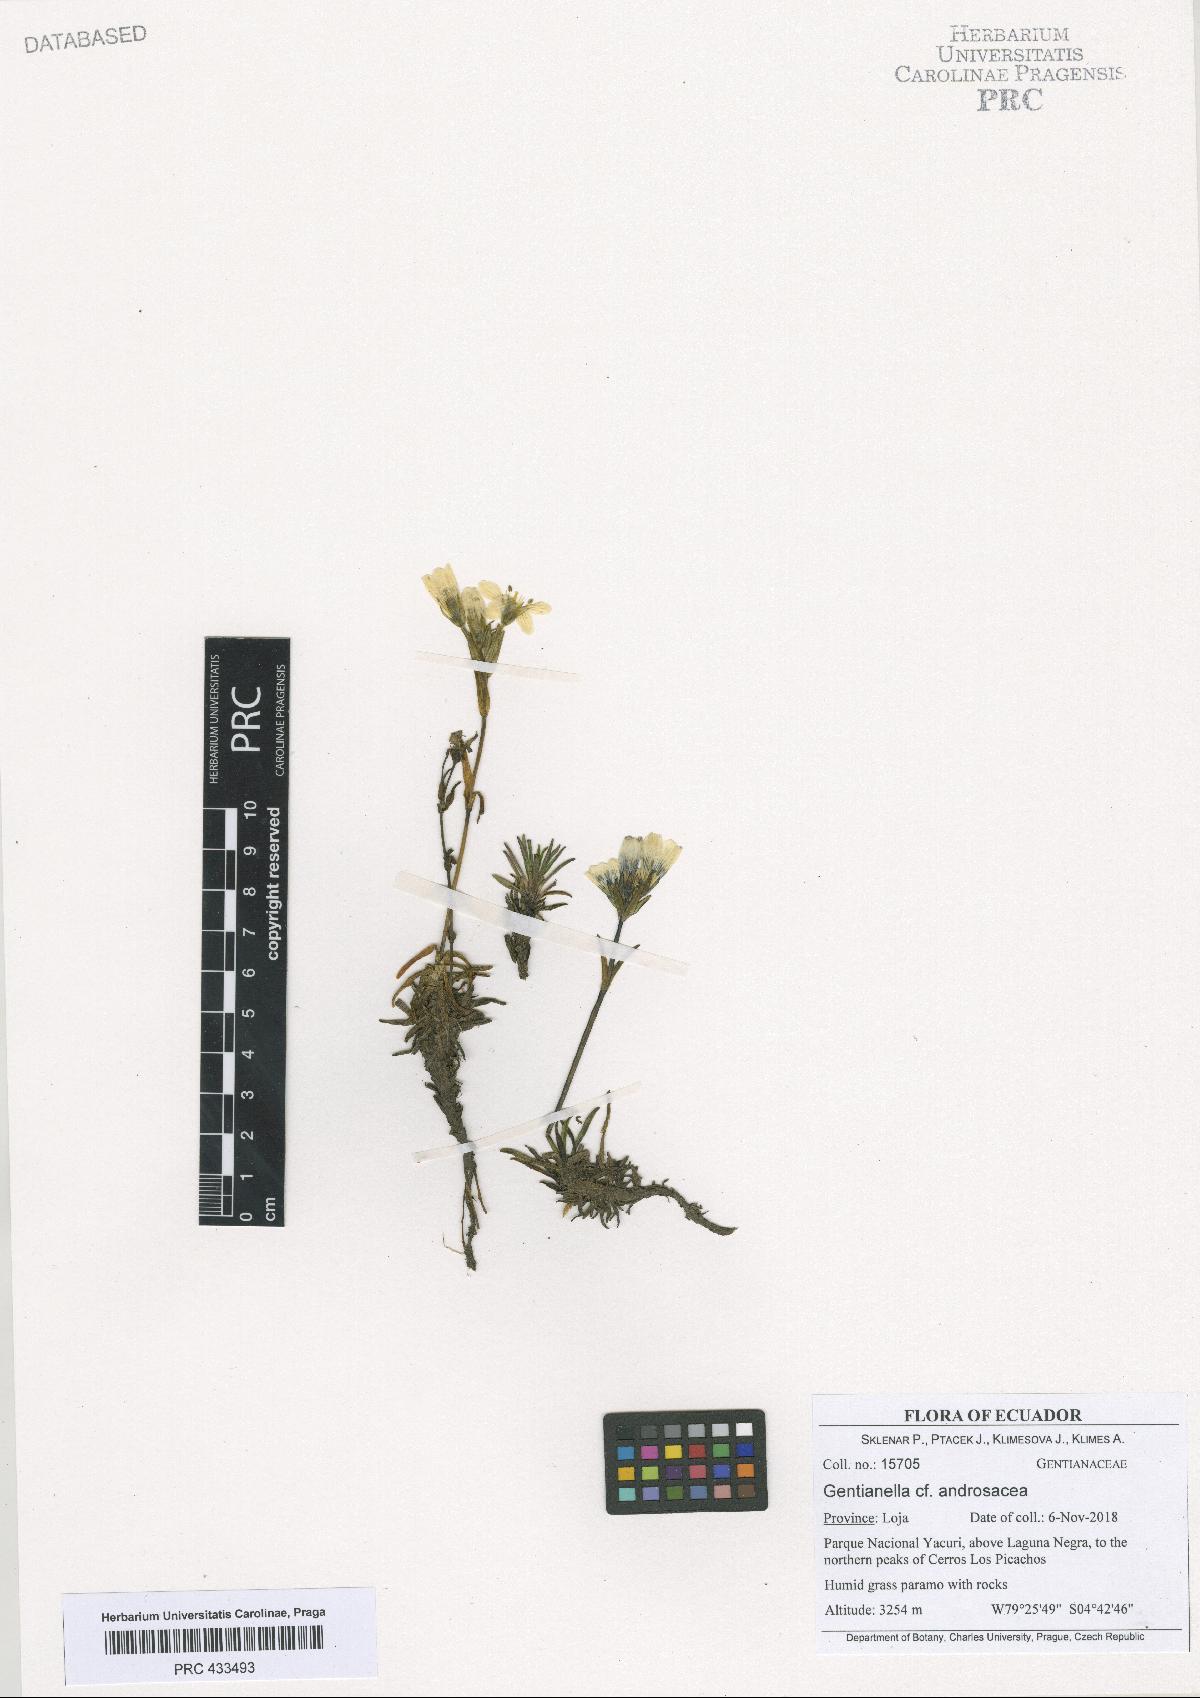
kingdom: Plantae
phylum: Tracheophyta
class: Magnoliopsida
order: Gentianales
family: Gentianaceae
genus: Gentianella
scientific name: Gentianella androsacea
